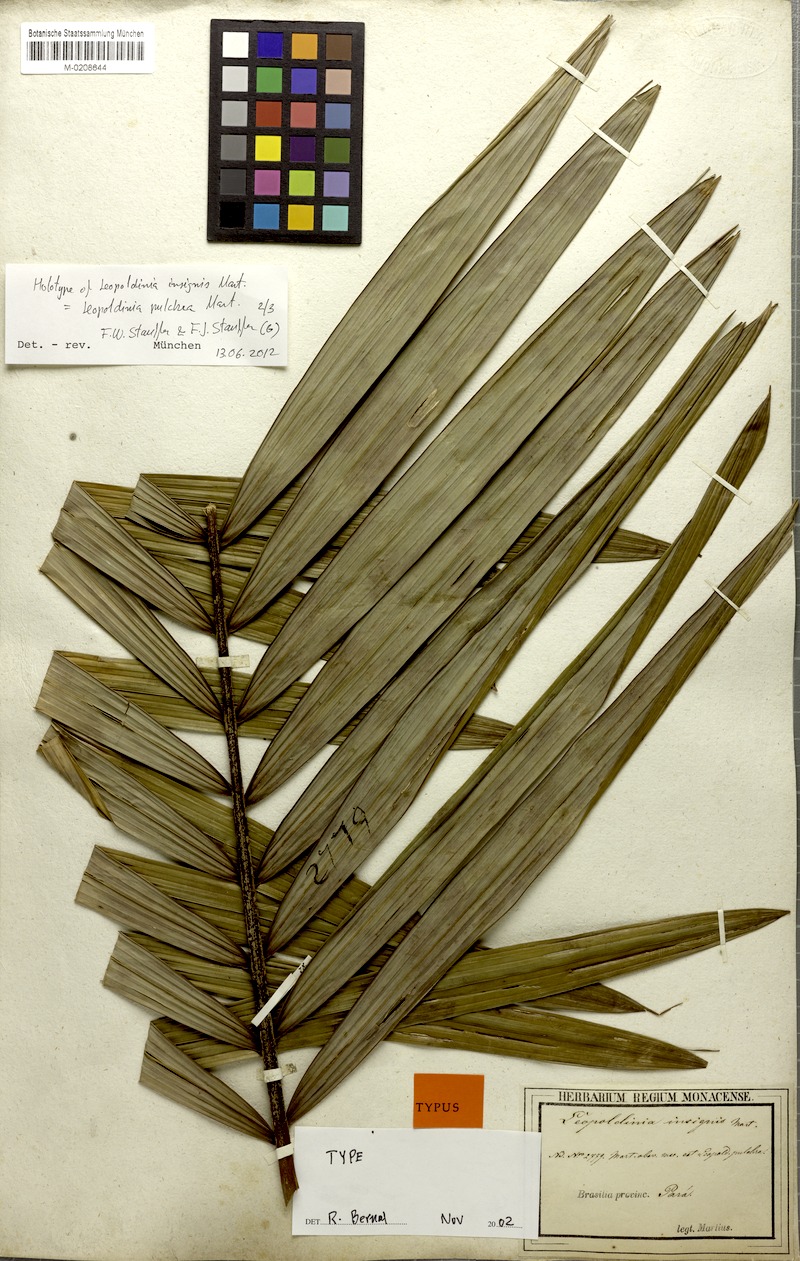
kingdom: Plantae
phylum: Tracheophyta
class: Liliopsida
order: Arecales
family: Arecaceae
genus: Leopoldinia
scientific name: Leopoldinia pulchra
